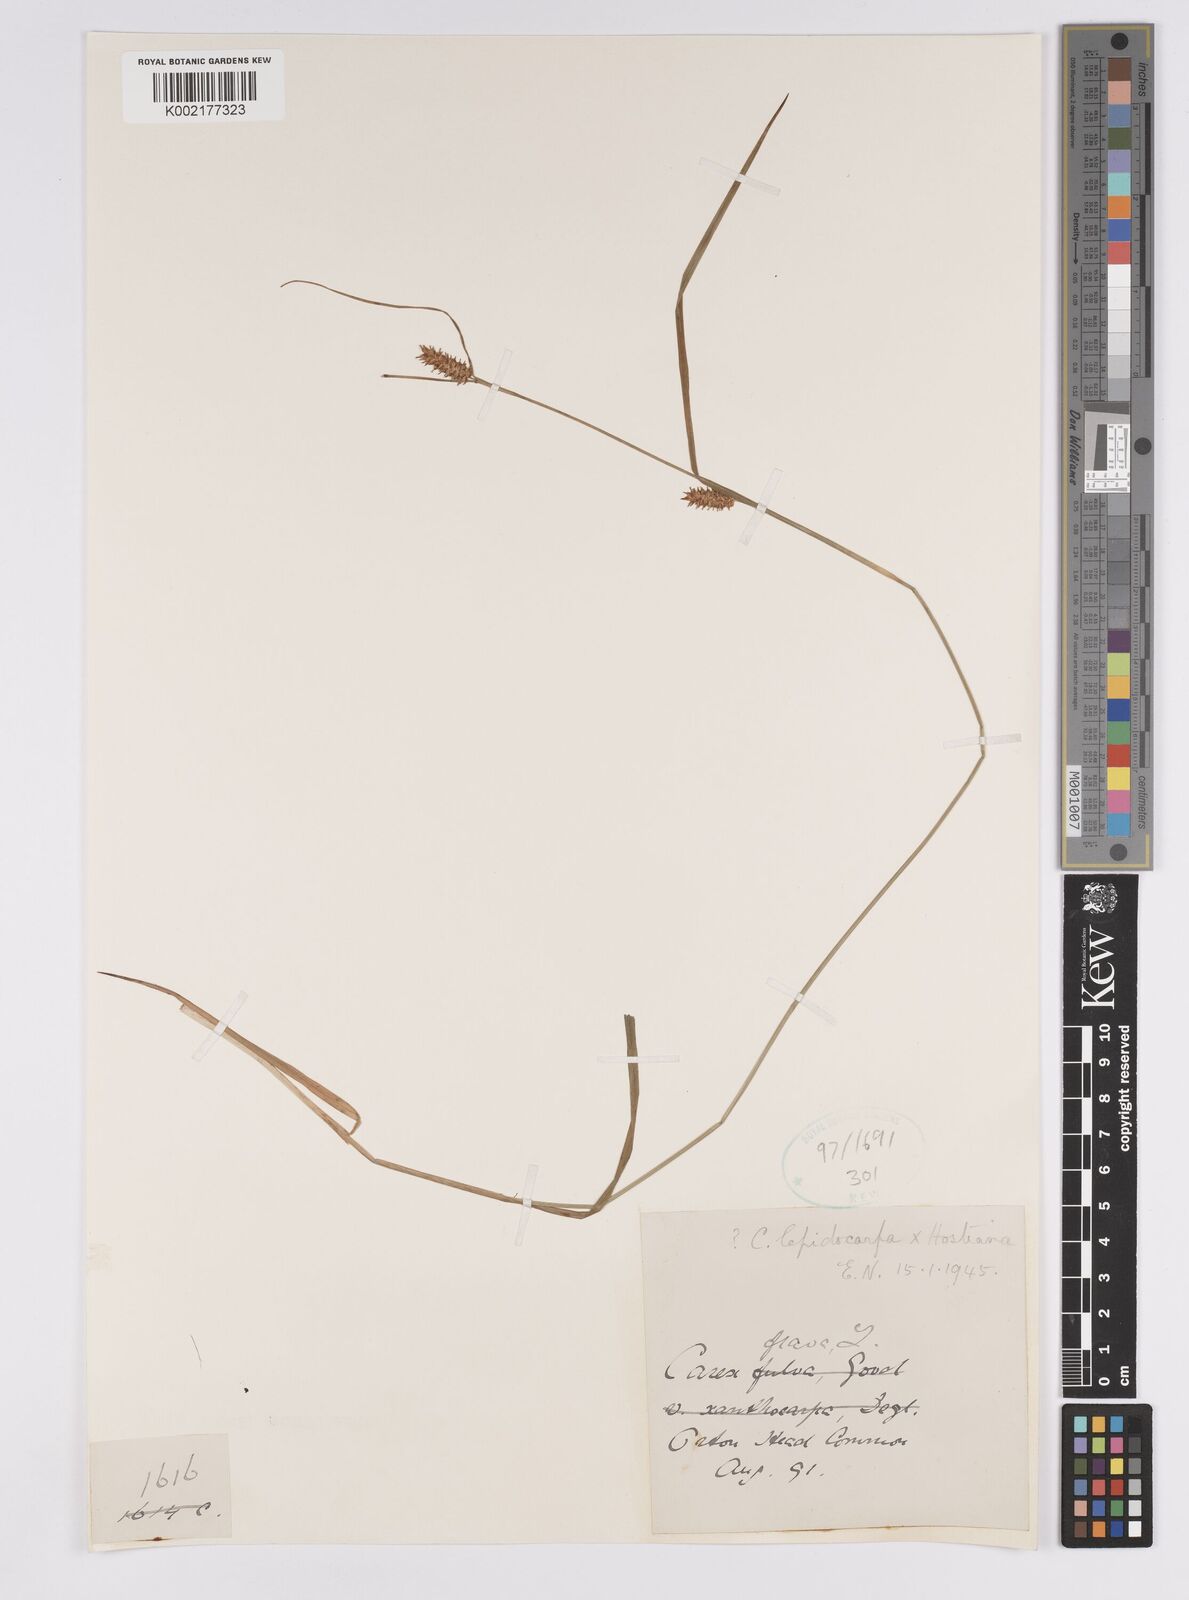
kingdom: Plantae
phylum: Tracheophyta
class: Liliopsida
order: Poales
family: Cyperaceae
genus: Carex
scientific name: Carex hostiana
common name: Tawny sedge
